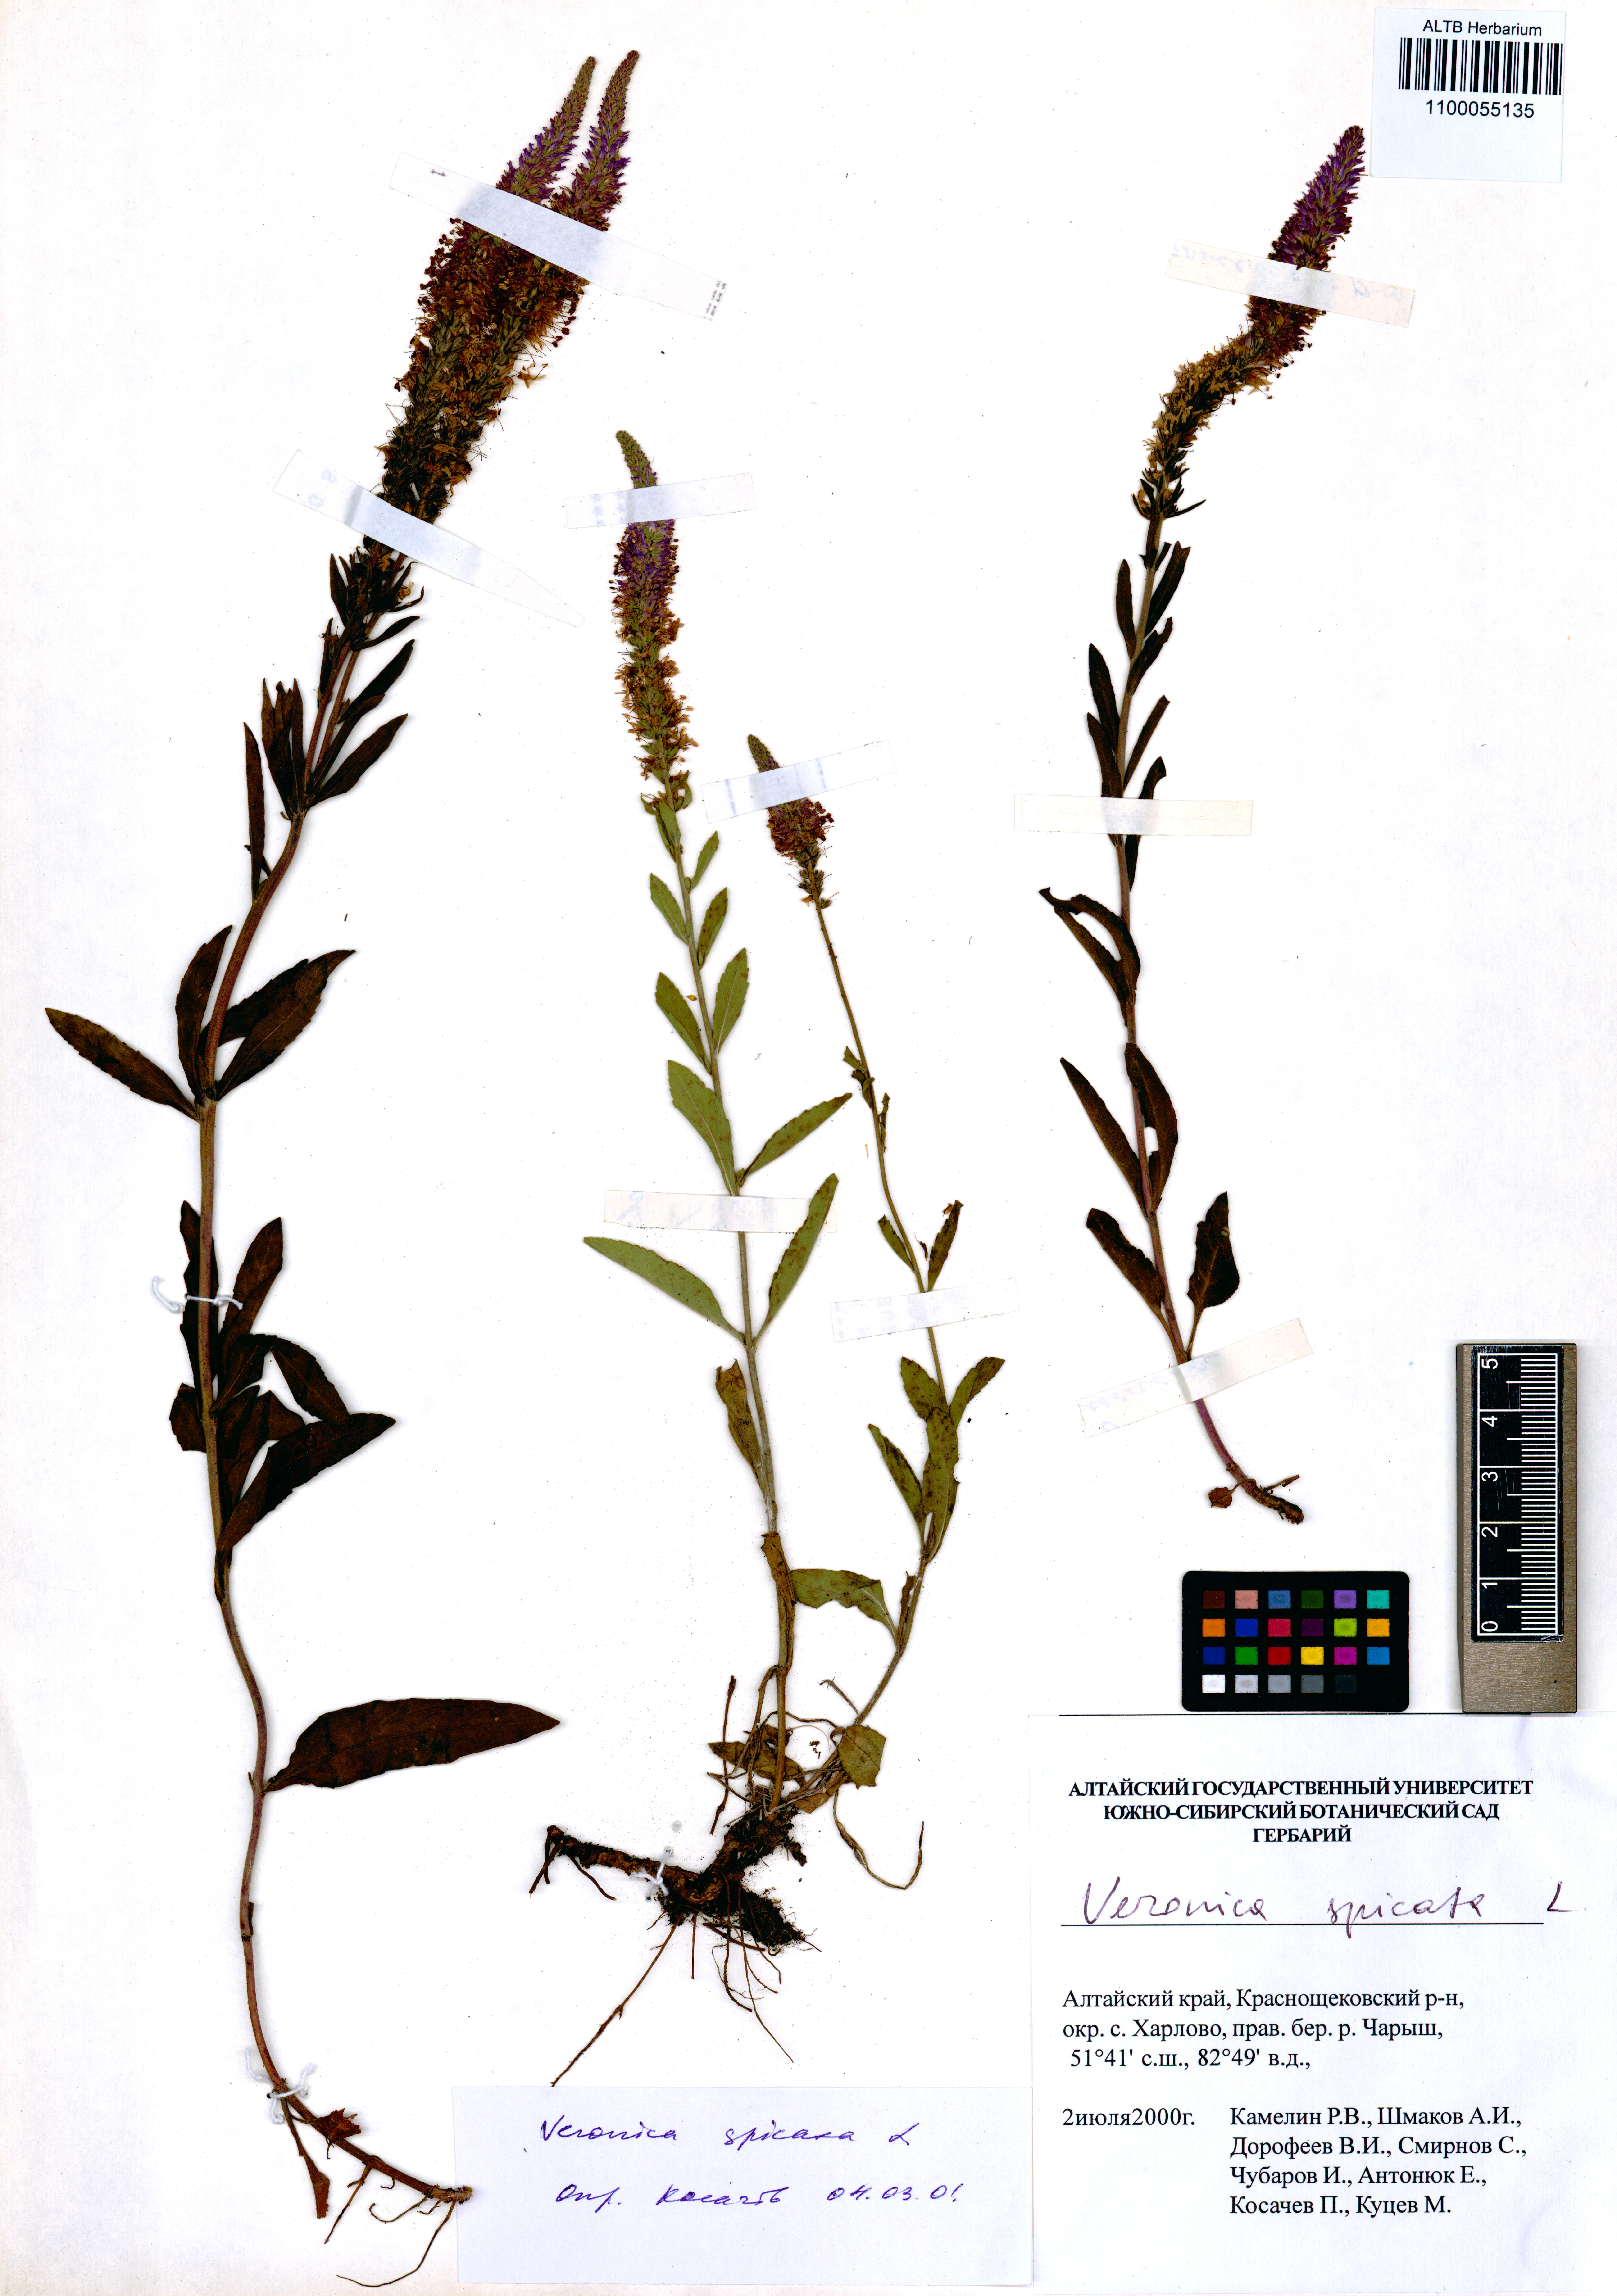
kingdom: Plantae
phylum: Tracheophyta
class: Magnoliopsida
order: Lamiales
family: Plantaginaceae
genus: Veronica
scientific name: Veronica spicata
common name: Spiked speedwell
